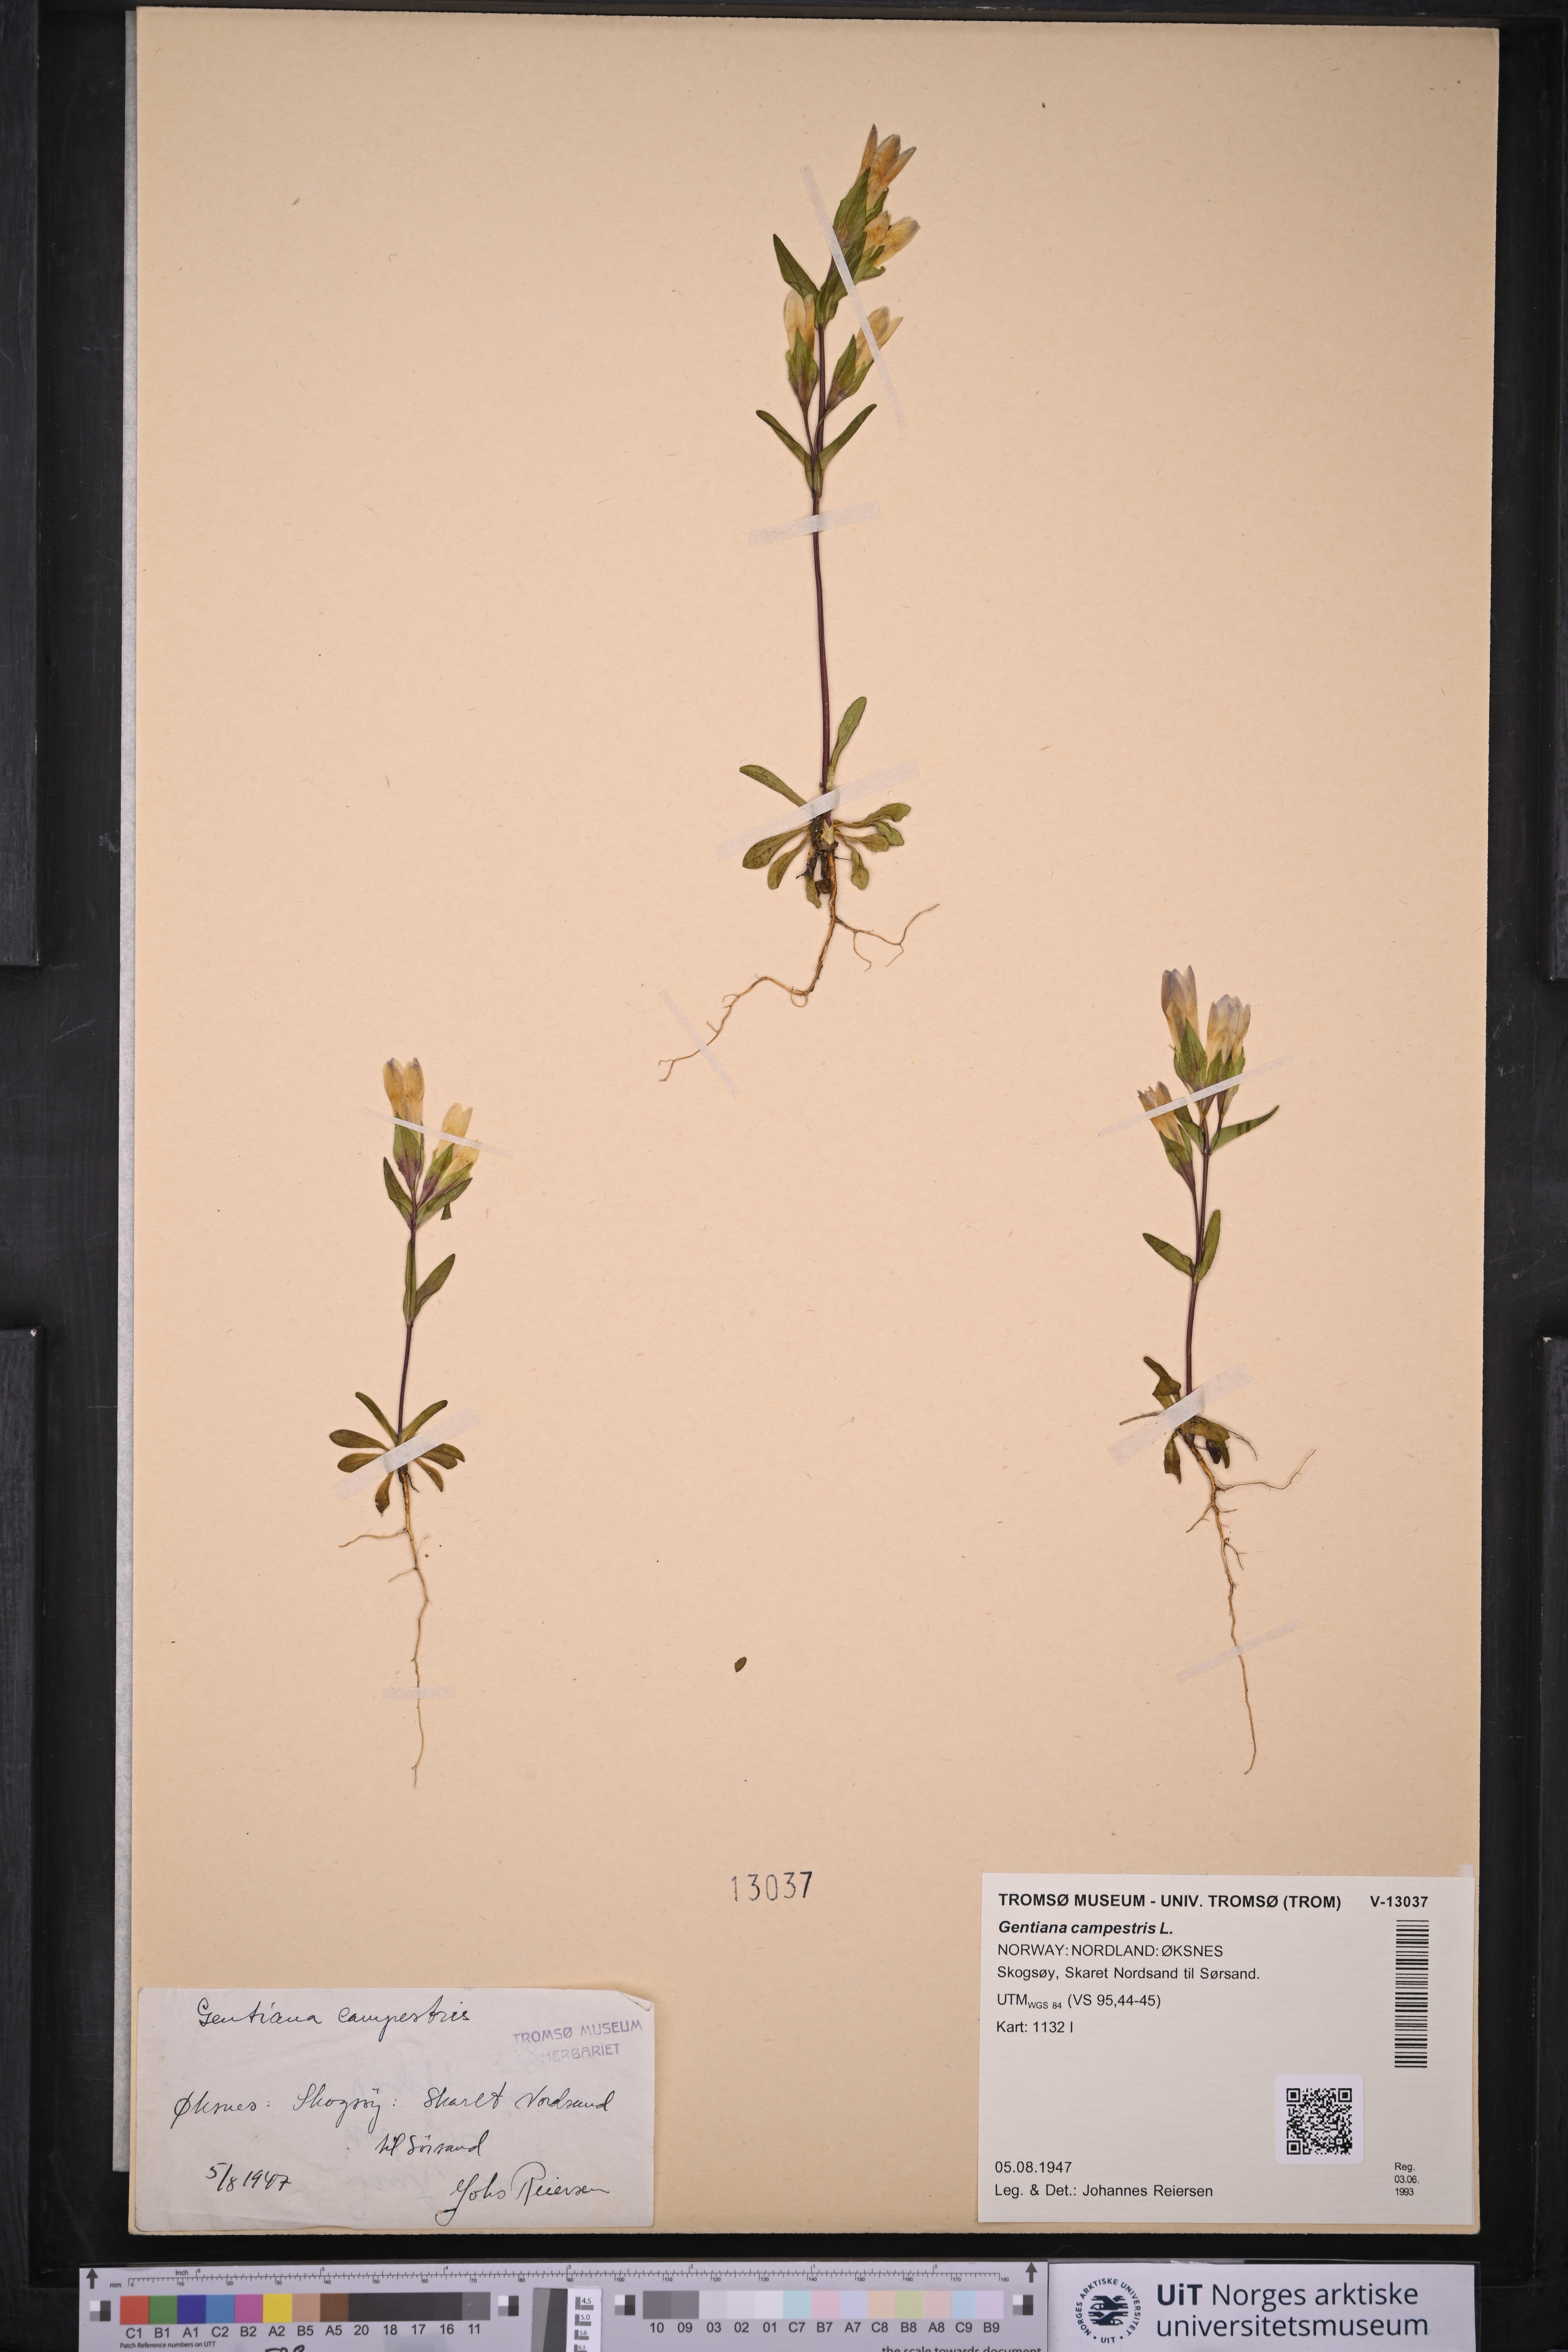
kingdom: Plantae
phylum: Tracheophyta
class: Magnoliopsida
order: Gentianales
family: Gentianaceae
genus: Gentianella
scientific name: Gentianella campestris
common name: Field gentian
